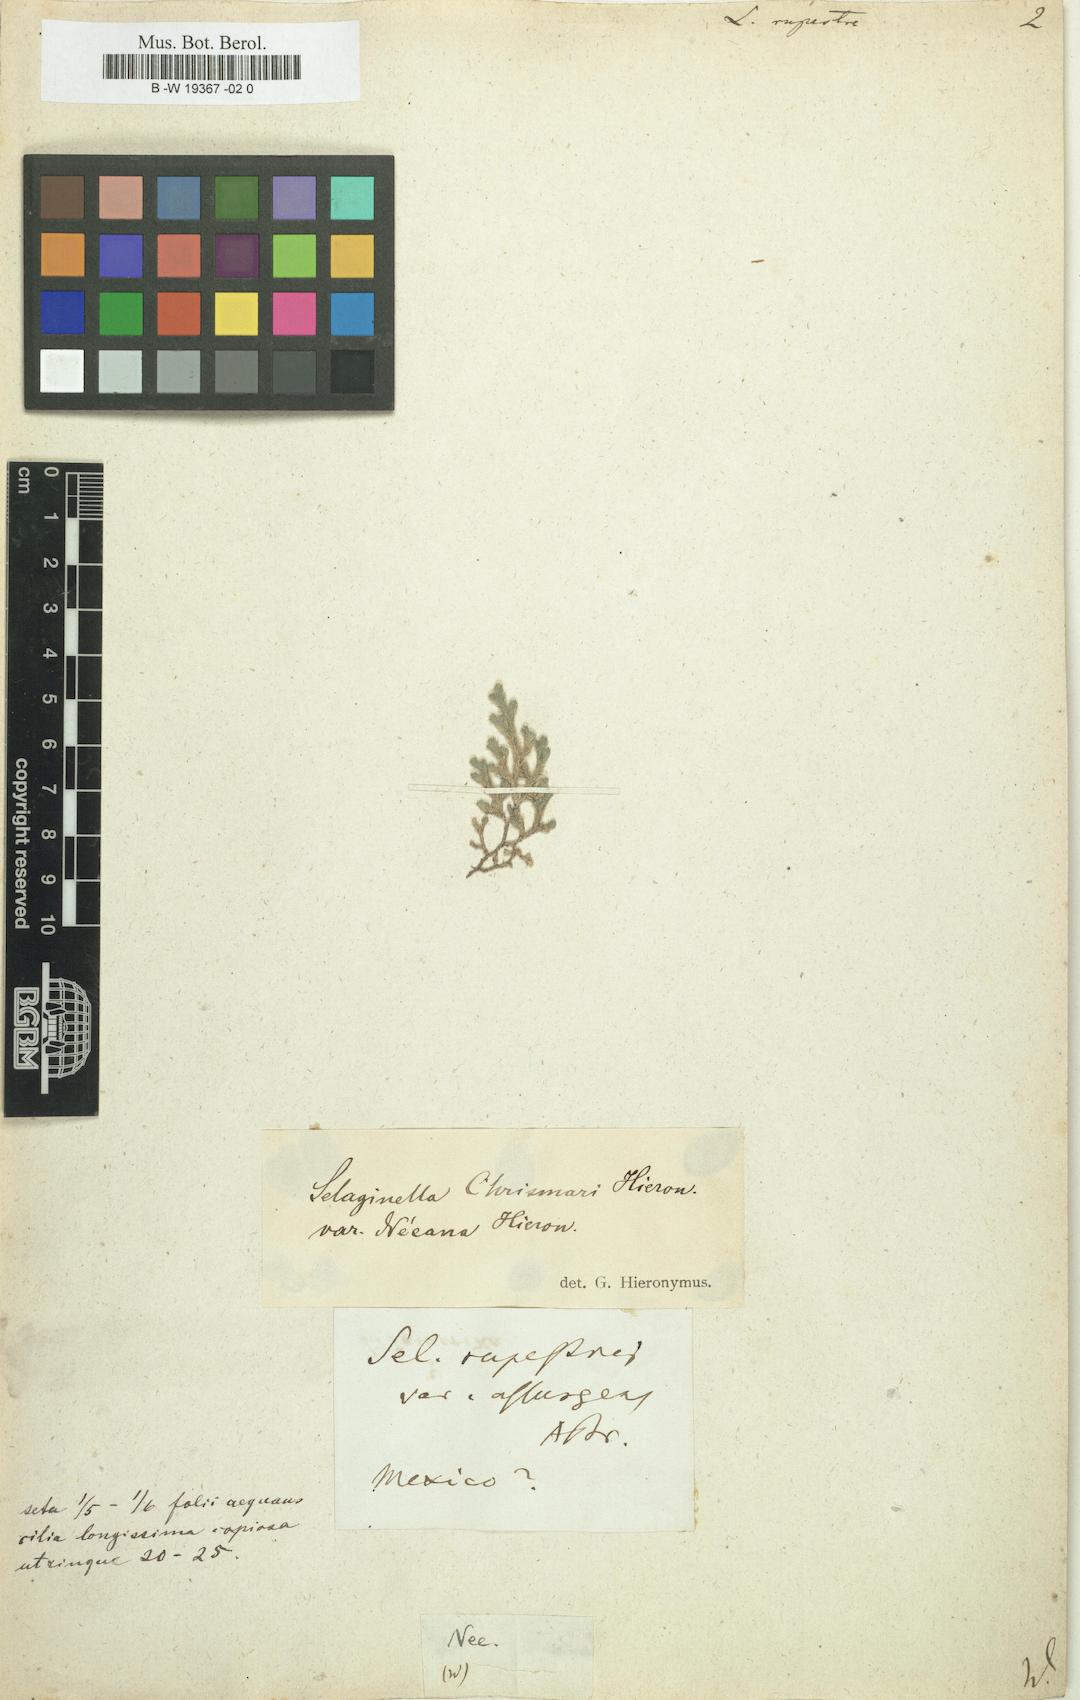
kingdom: Plantae
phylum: Tracheophyta
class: Lycopodiopsida
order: Selaginellales
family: Selaginellaceae
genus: Selaginella
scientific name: Selaginella rupestris
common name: Dwarf spikemoss
